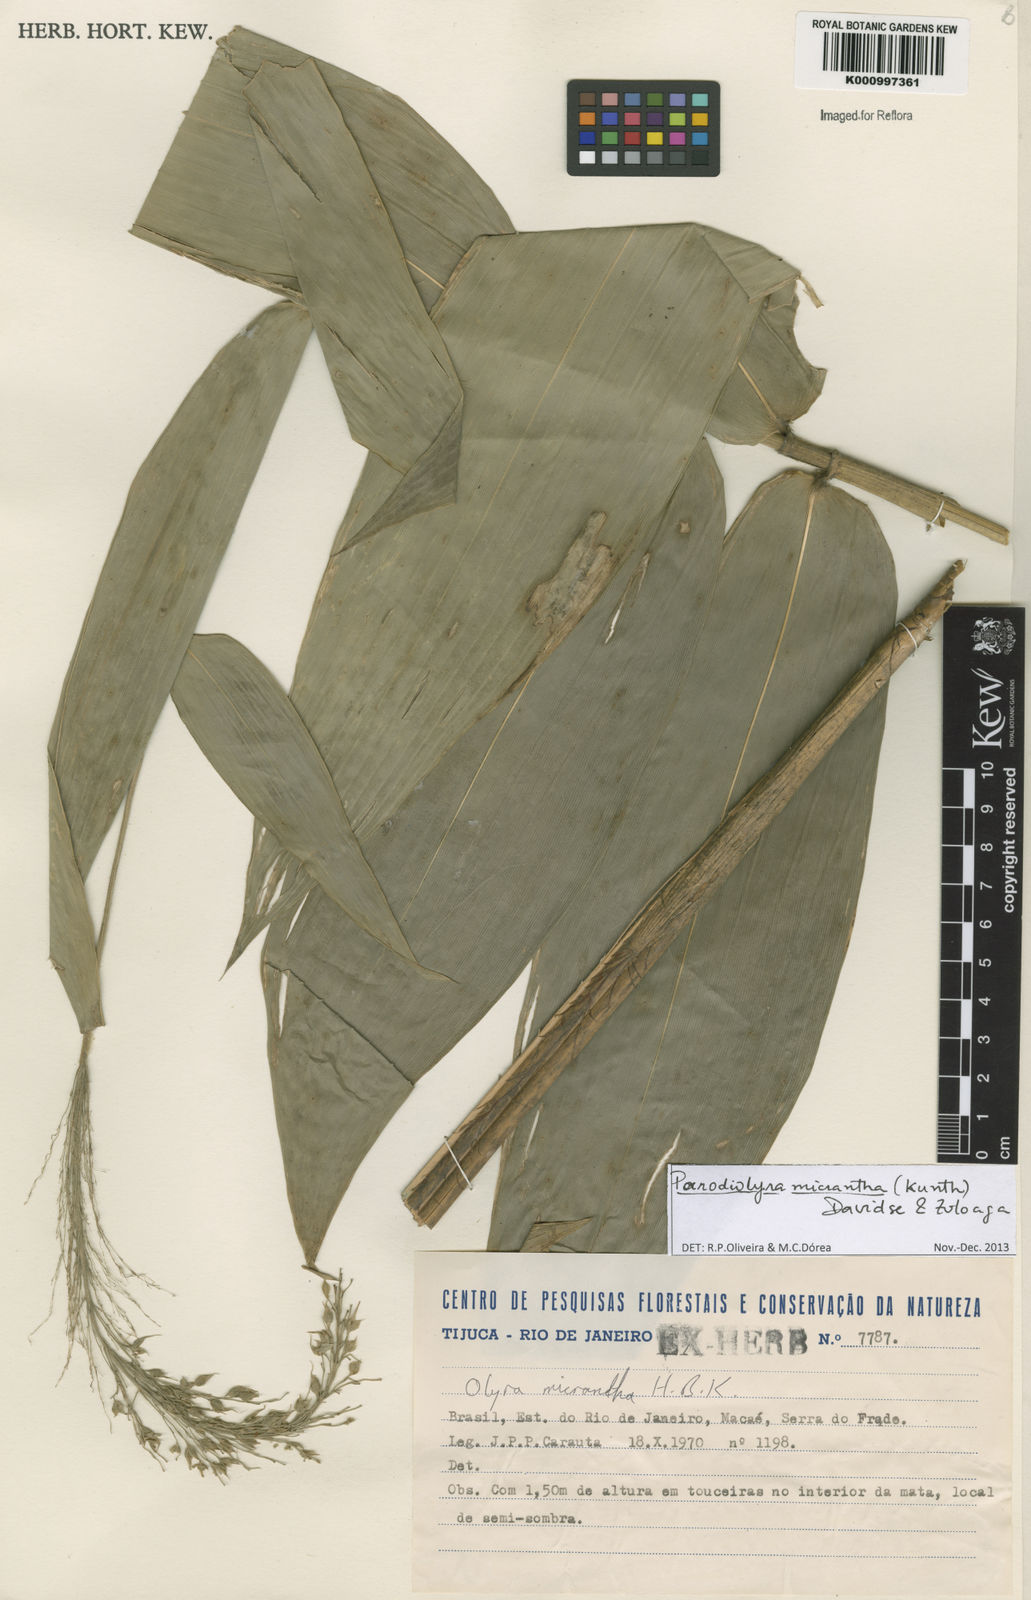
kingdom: Plantae
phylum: Tracheophyta
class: Liliopsida
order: Poales
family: Poaceae
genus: Taquara
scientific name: Taquara micrantha
